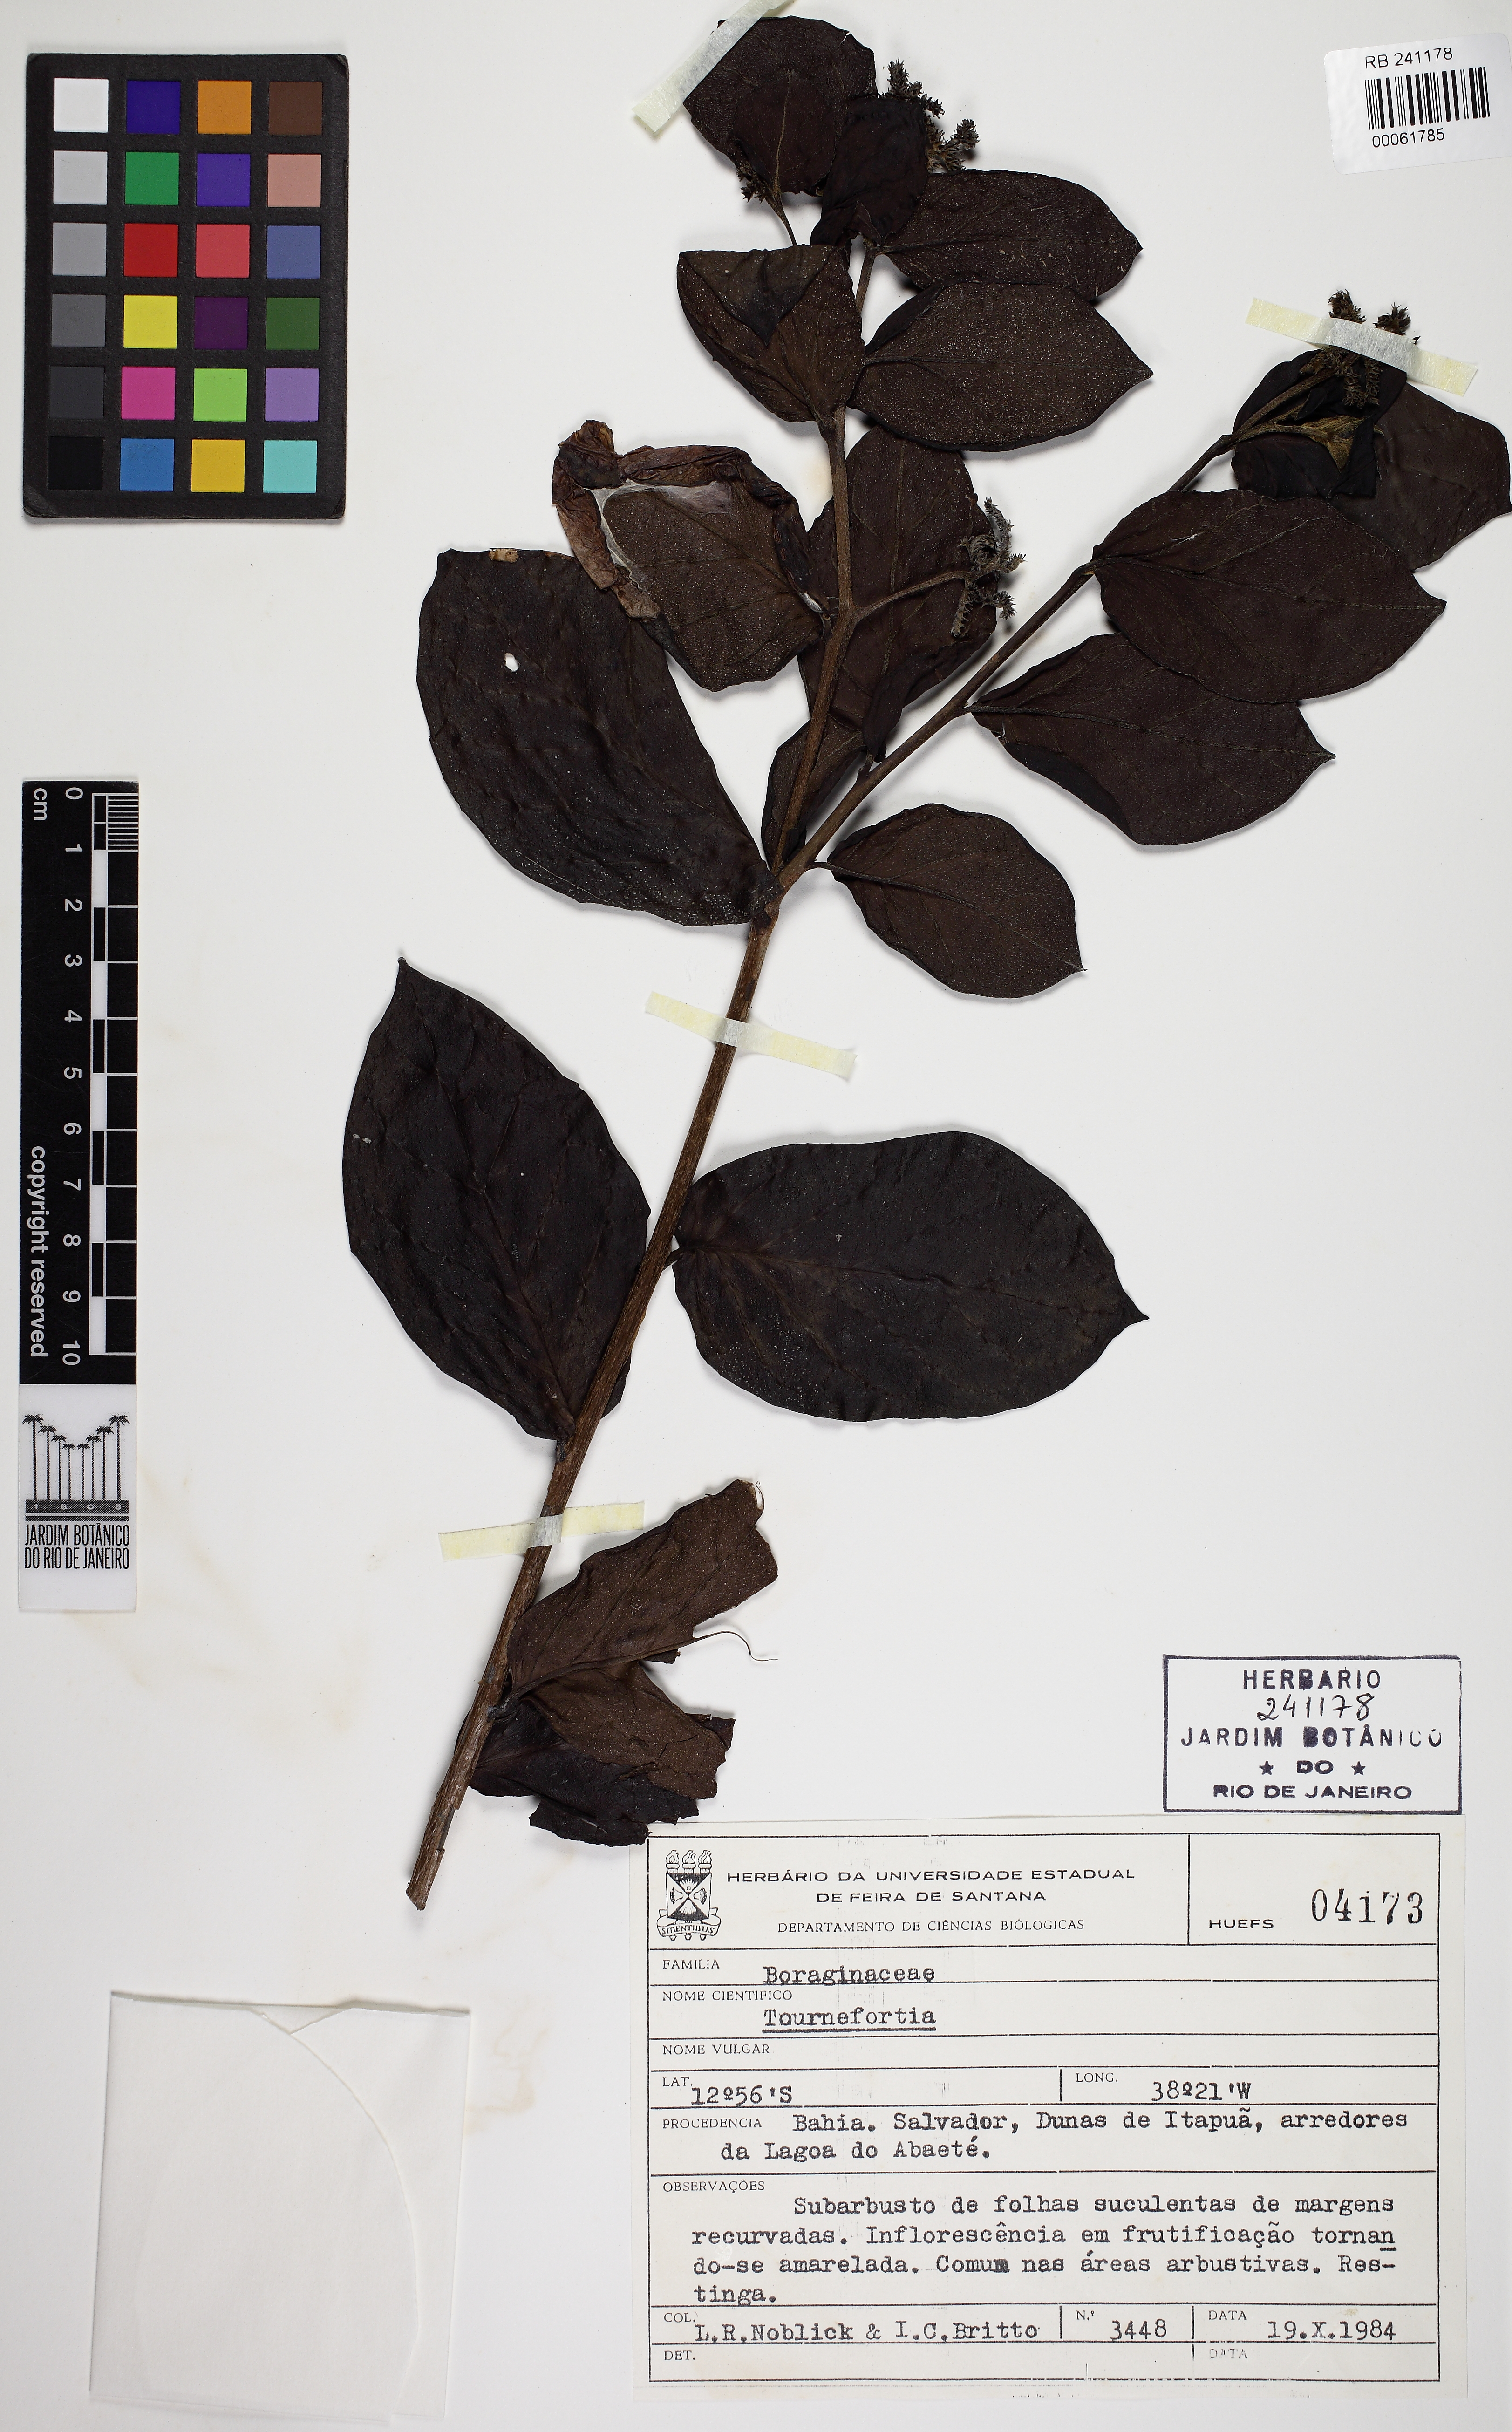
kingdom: Plantae
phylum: Tracheophyta
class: Magnoliopsida
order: Boraginales
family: Heliotropiaceae
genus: Myriopus
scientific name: Myriopus subsessilis
